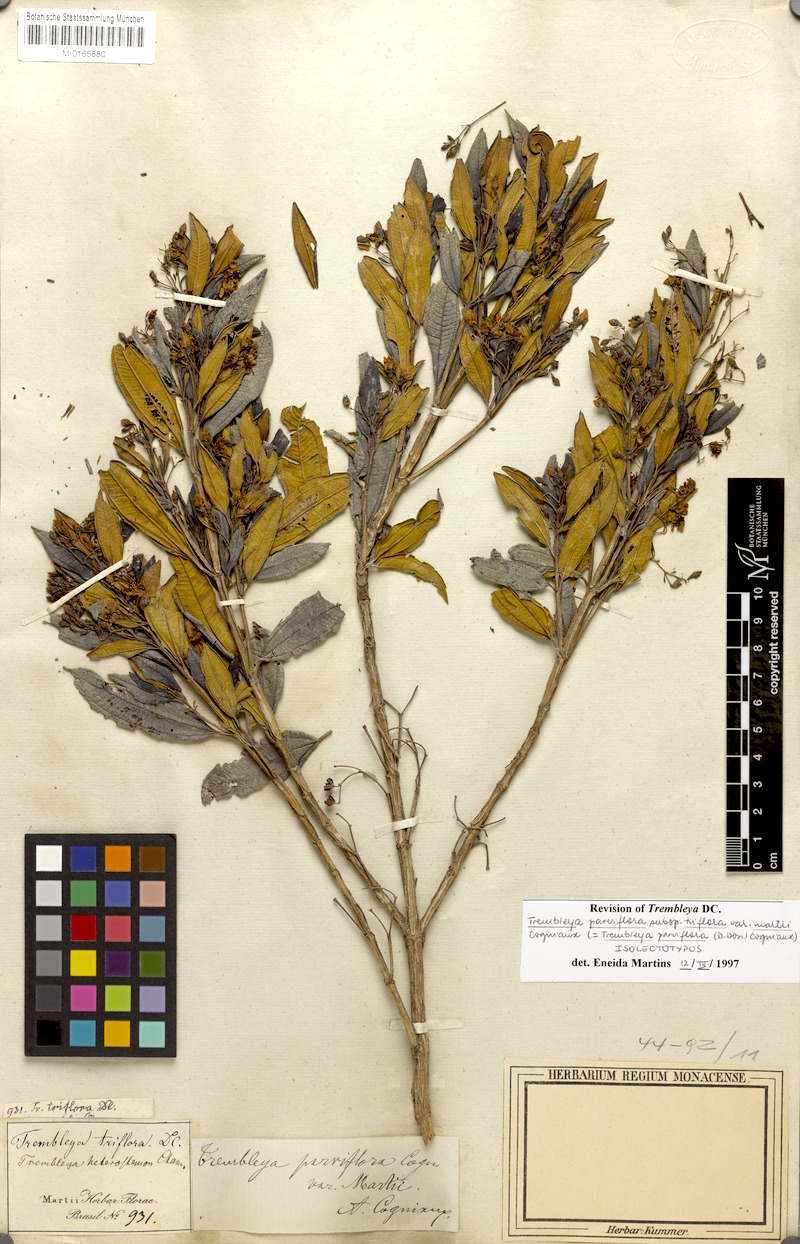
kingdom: Plantae
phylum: Tracheophyta
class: Magnoliopsida
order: Myrtales
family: Melastomataceae
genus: Microlicia
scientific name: Microlicia parviflora
